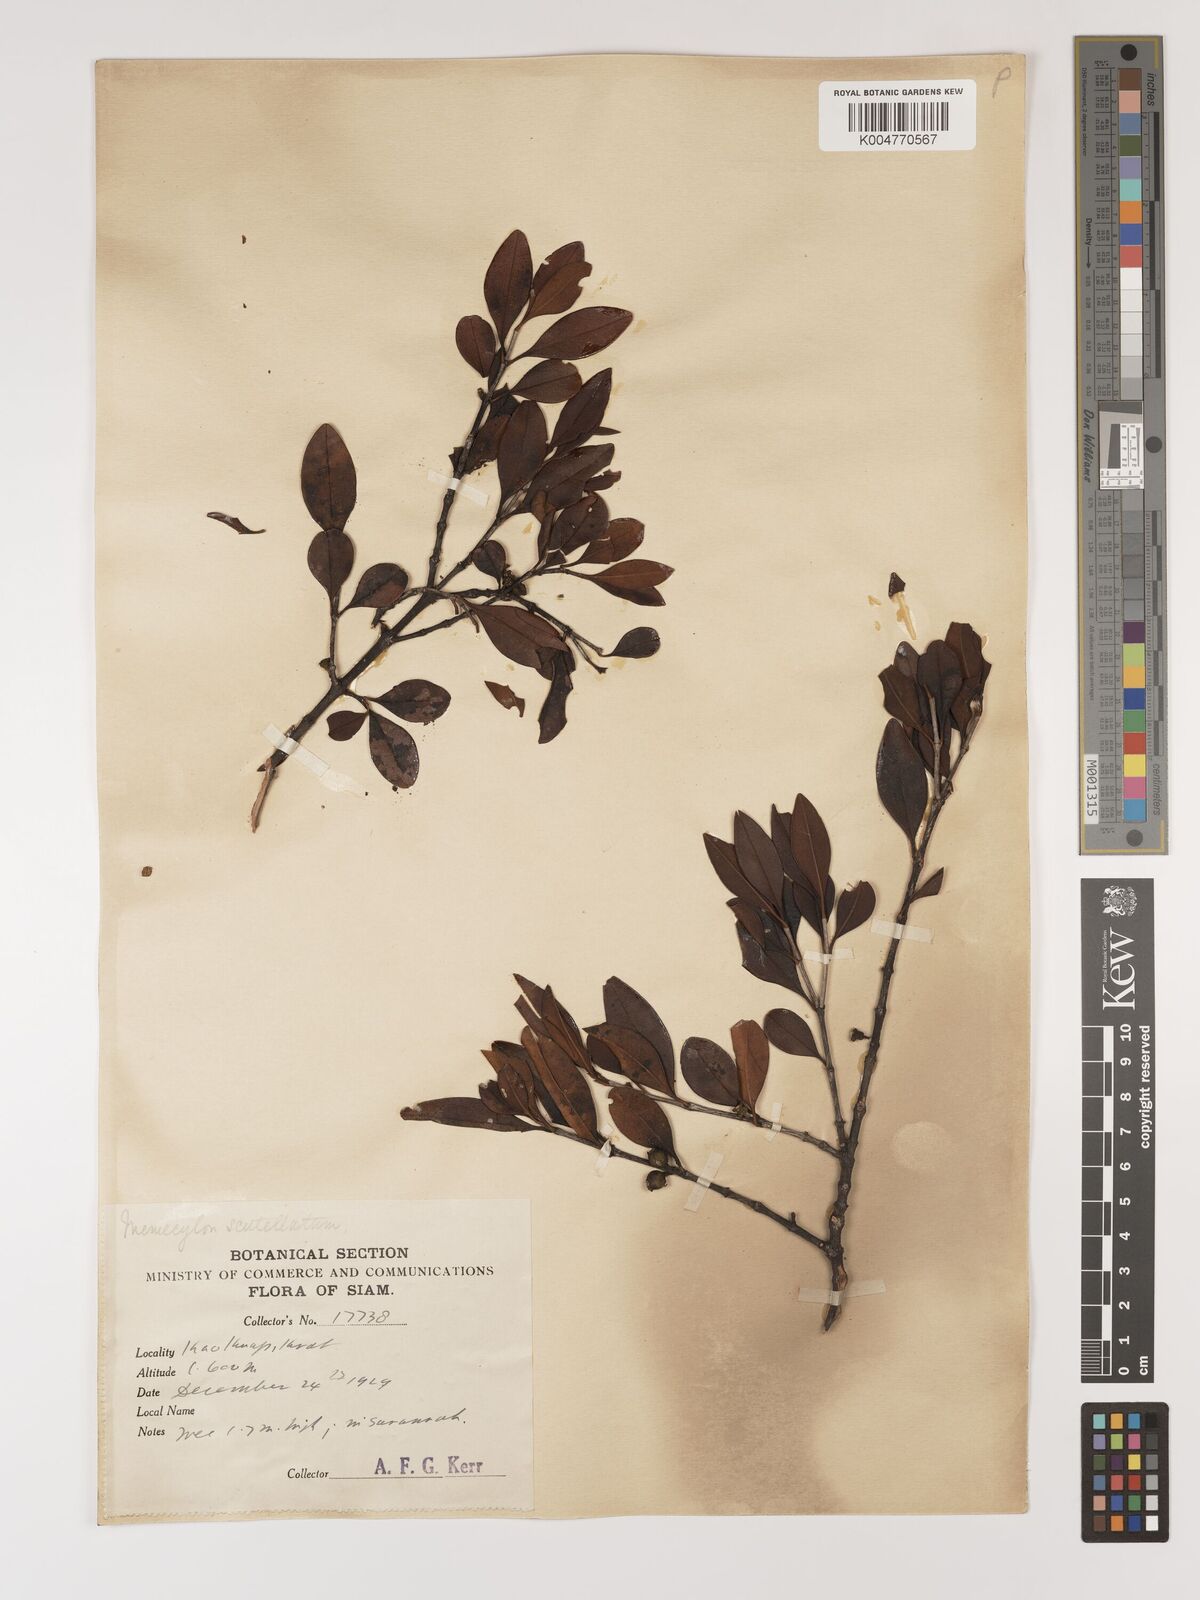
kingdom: Plantae
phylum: Tracheophyta
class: Magnoliopsida
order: Myrtales
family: Melastomataceae
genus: Memecylon
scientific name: Memecylon scutellatum
